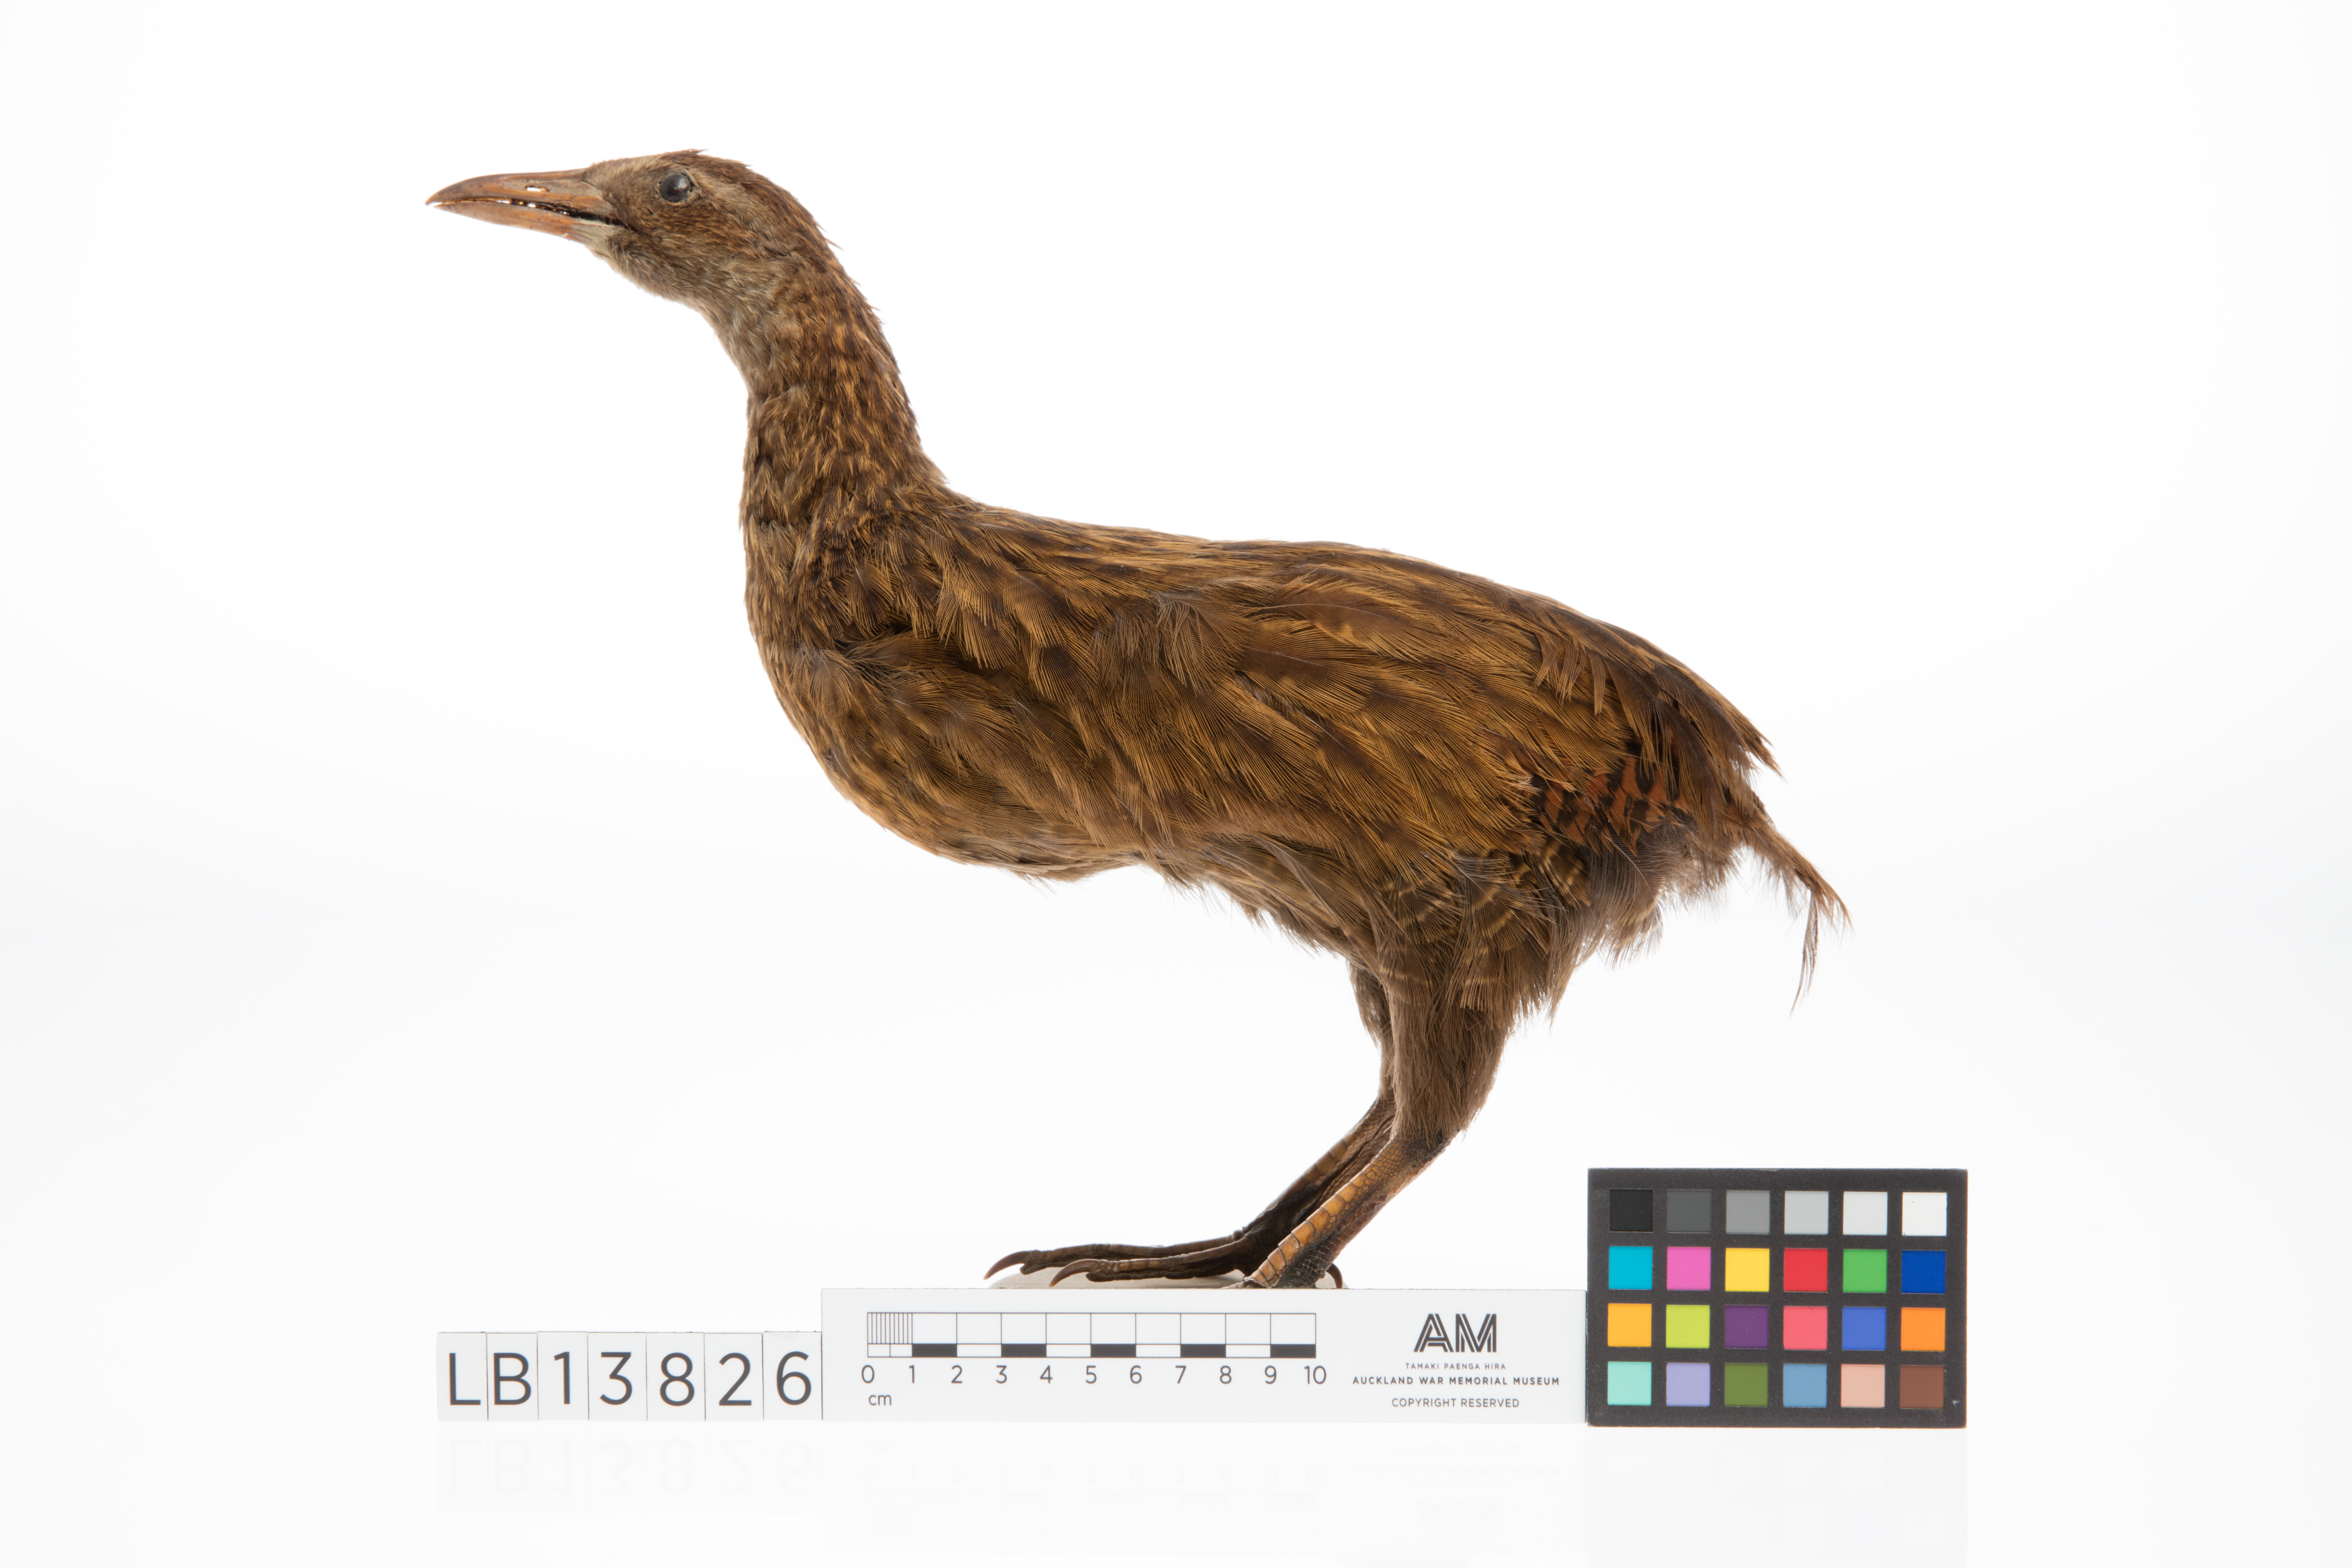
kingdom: Animalia
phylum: Chordata
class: Aves
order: Gruiformes
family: Rallidae
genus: Gallirallus
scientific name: Gallirallus australis
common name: Weka
